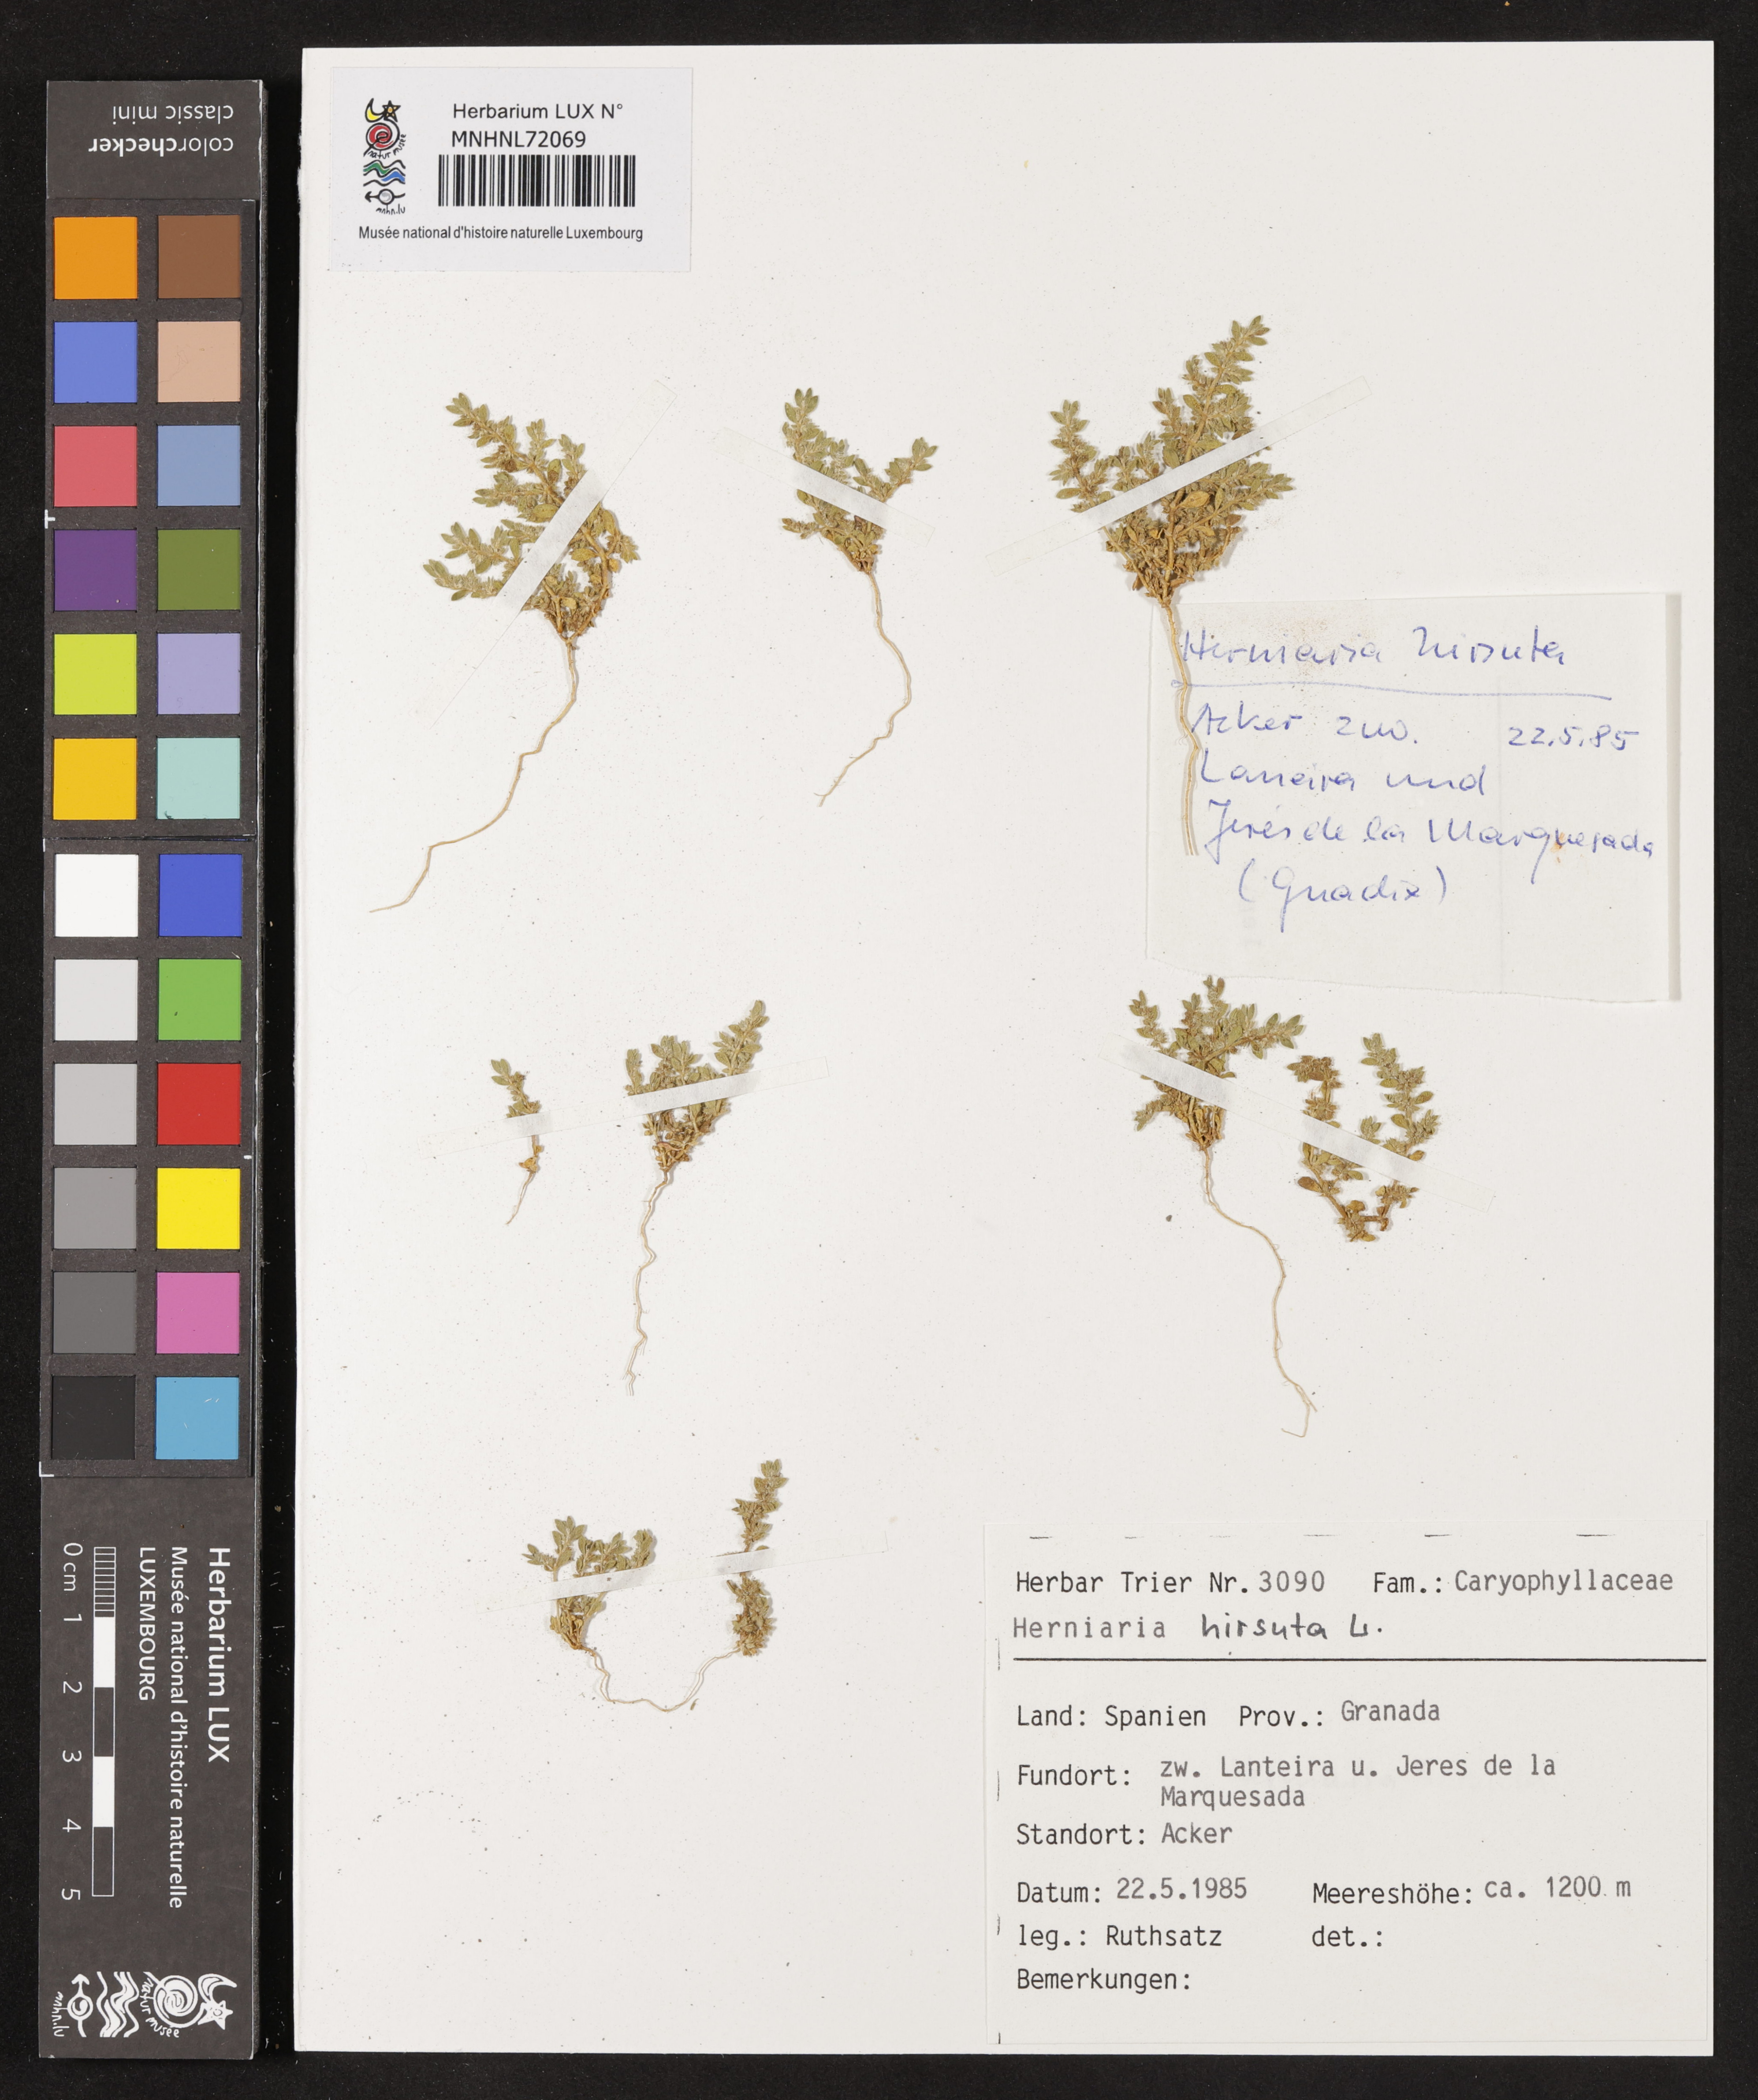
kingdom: Plantae
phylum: Tracheophyta
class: Magnoliopsida
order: Caryophyllales
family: Caryophyllaceae
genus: Herniaria
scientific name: Herniaria hirsuta
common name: Hairy rupturewort
